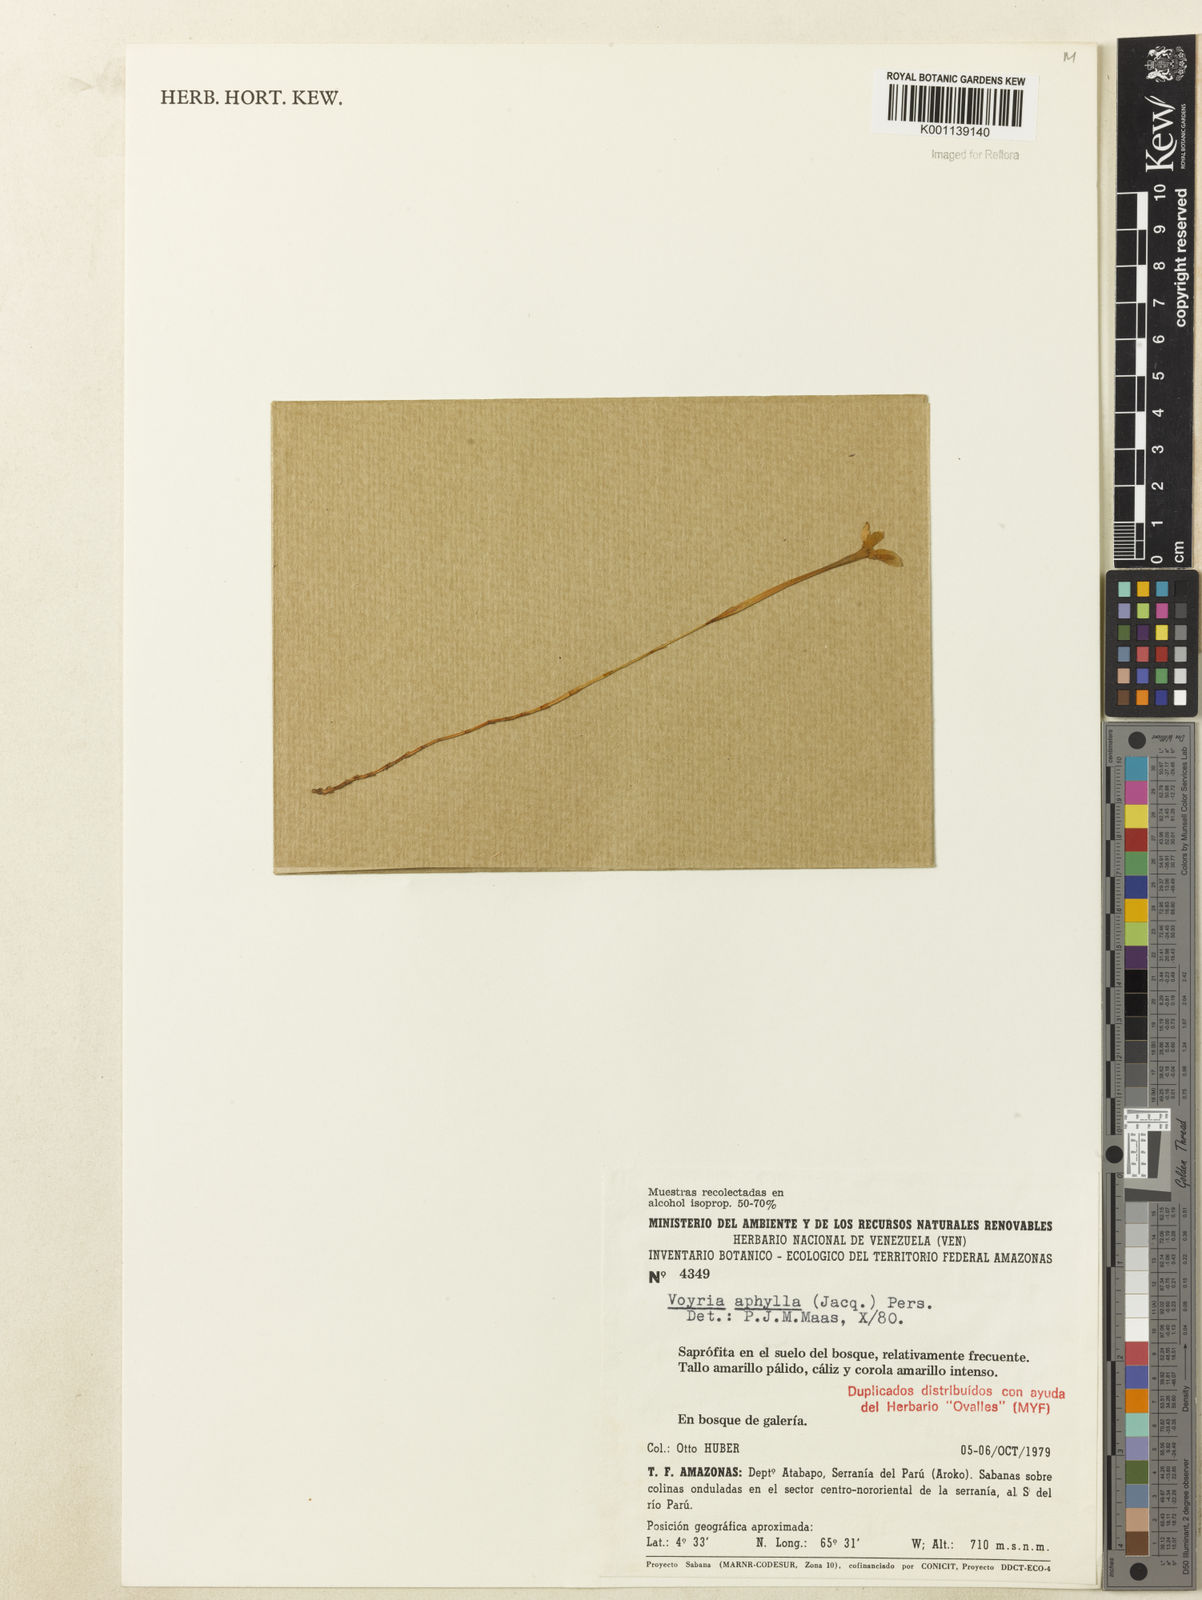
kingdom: Plantae
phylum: Tracheophyta
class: Magnoliopsida
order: Gentianales
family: Gentianaceae
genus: Voyria
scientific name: Voyria aphylla
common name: Leafless ghost plant
